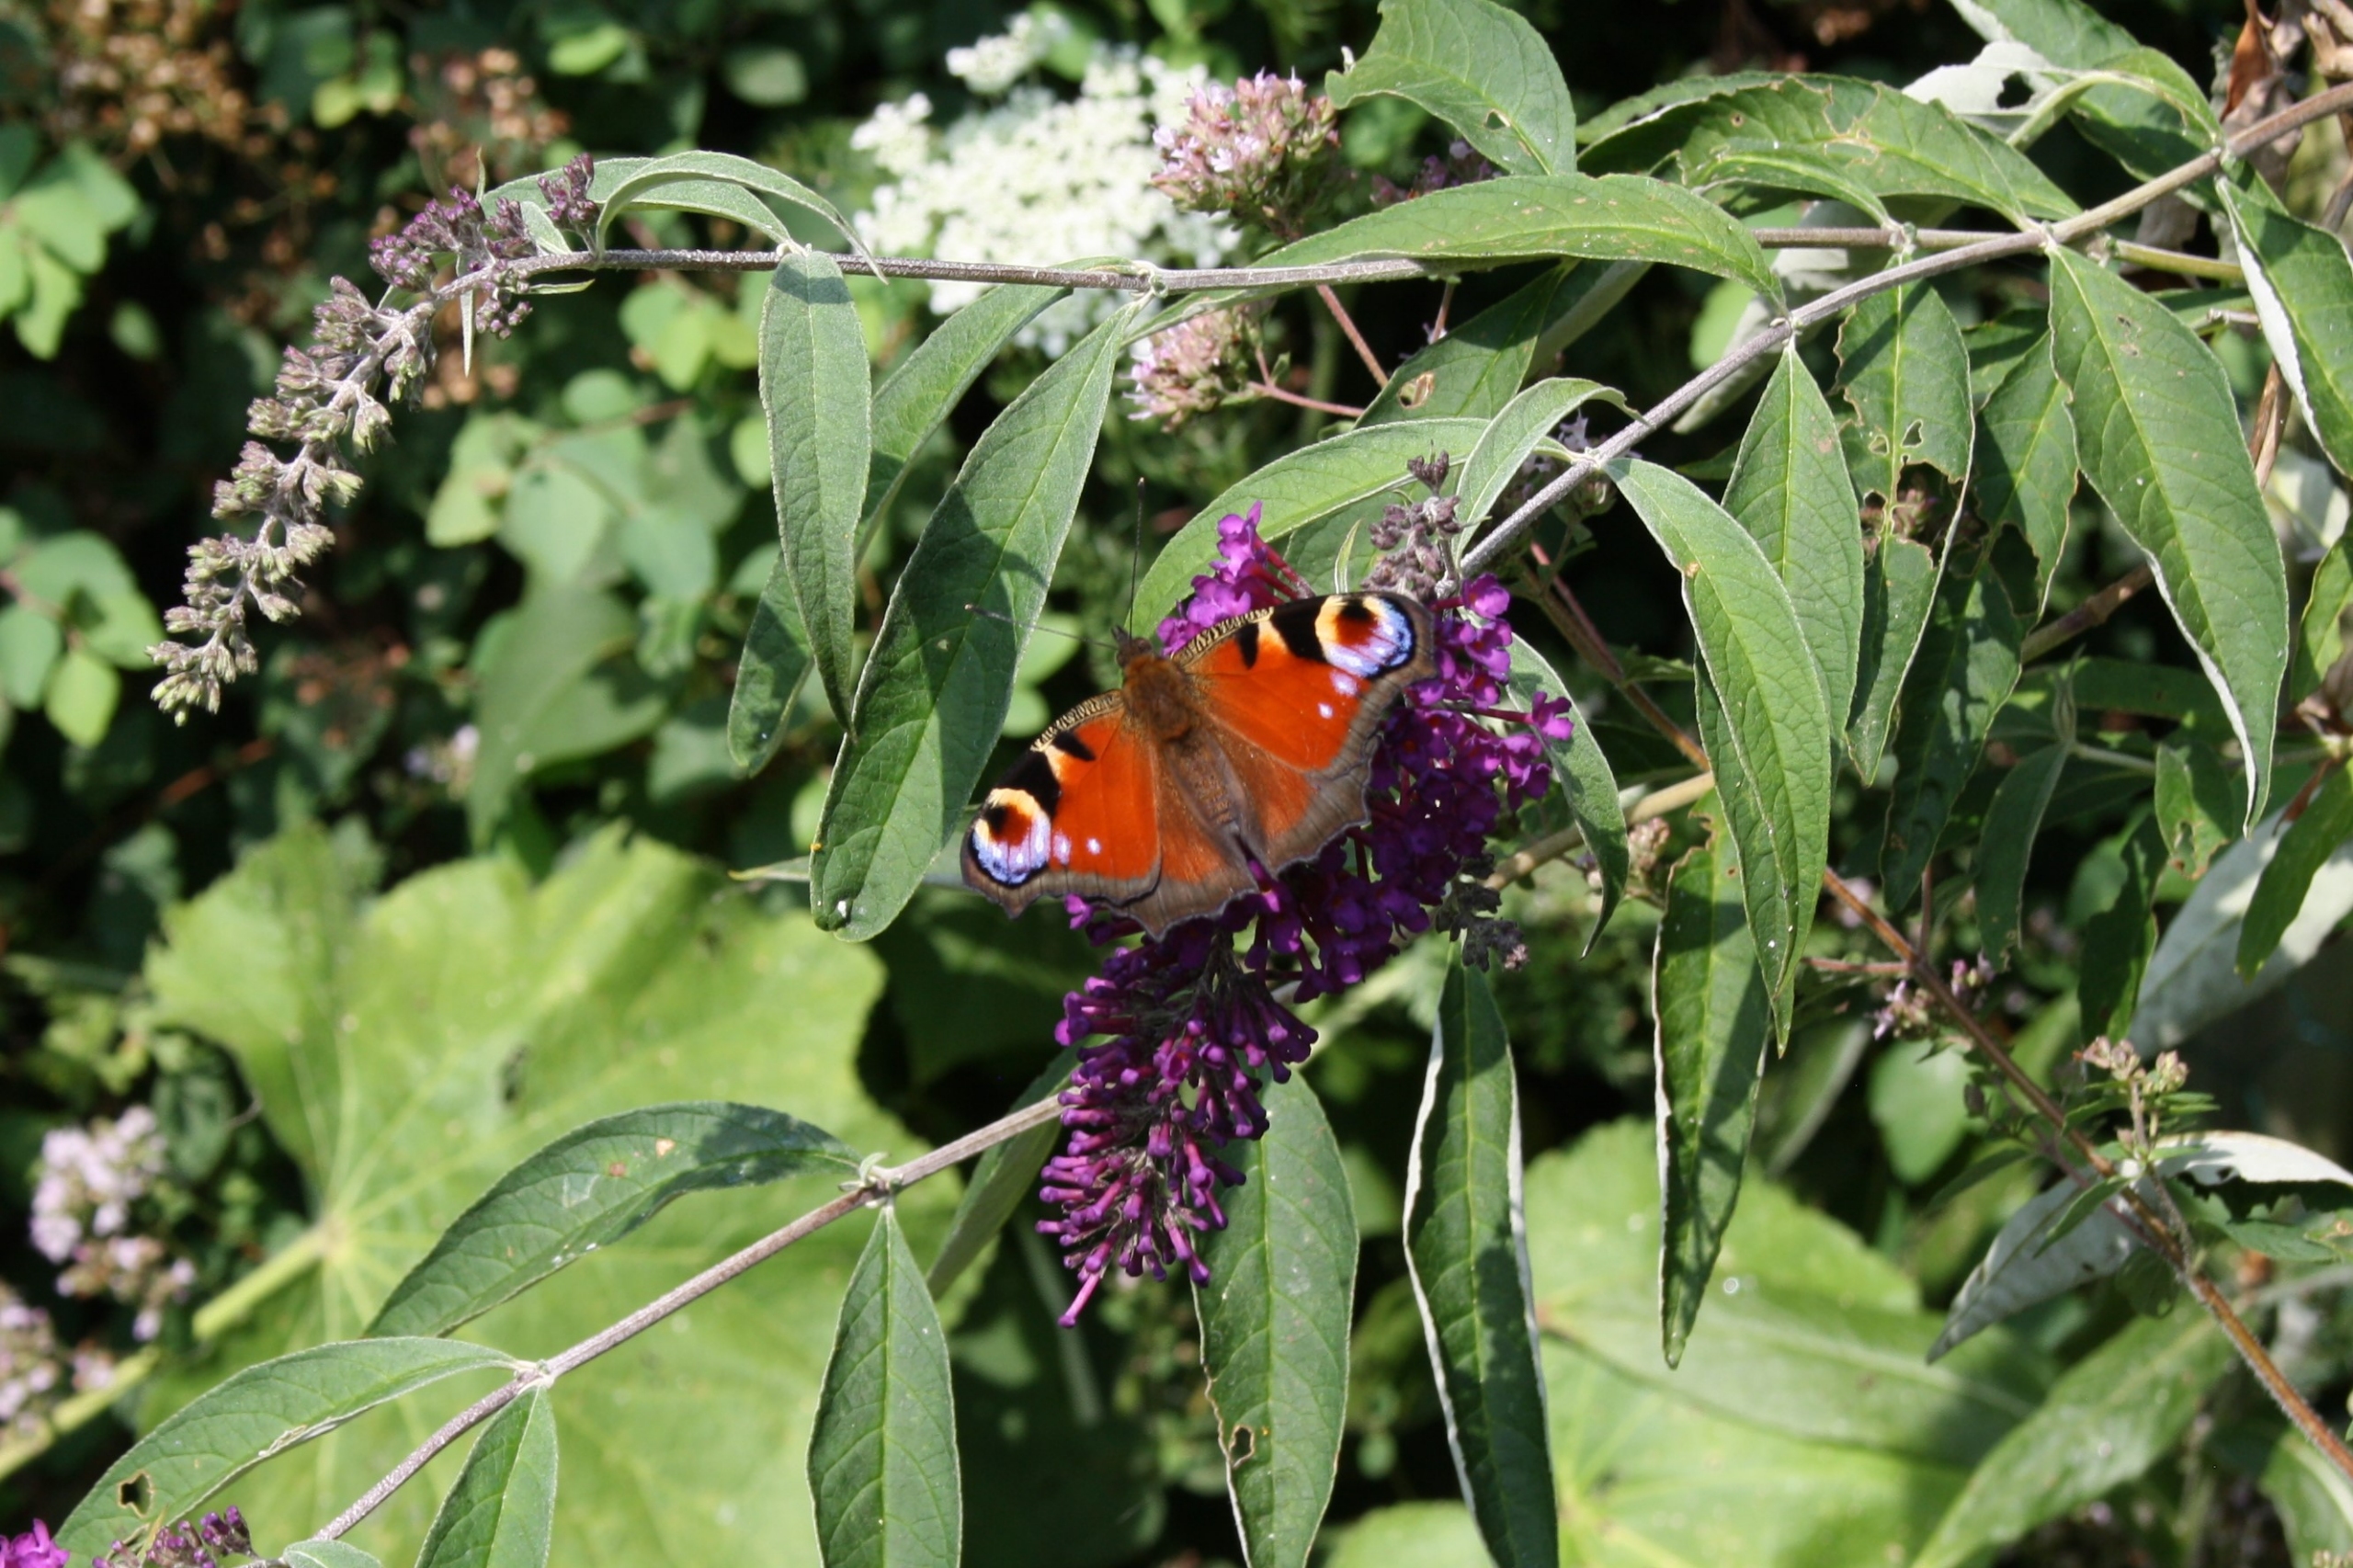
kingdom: Animalia
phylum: Arthropoda
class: Insecta
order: Lepidoptera
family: Nymphalidae
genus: Aglais
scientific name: Aglais io
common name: Dagpåfugleøje
